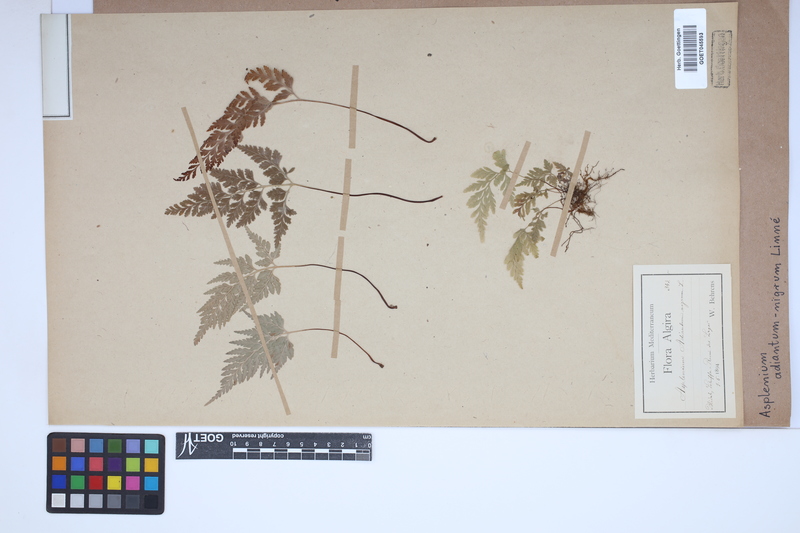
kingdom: Plantae
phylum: Tracheophyta
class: Polypodiopsida
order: Polypodiales
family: Aspleniaceae
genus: Asplenium
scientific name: Asplenium adiantum-nigrum
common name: Black spleenwort
